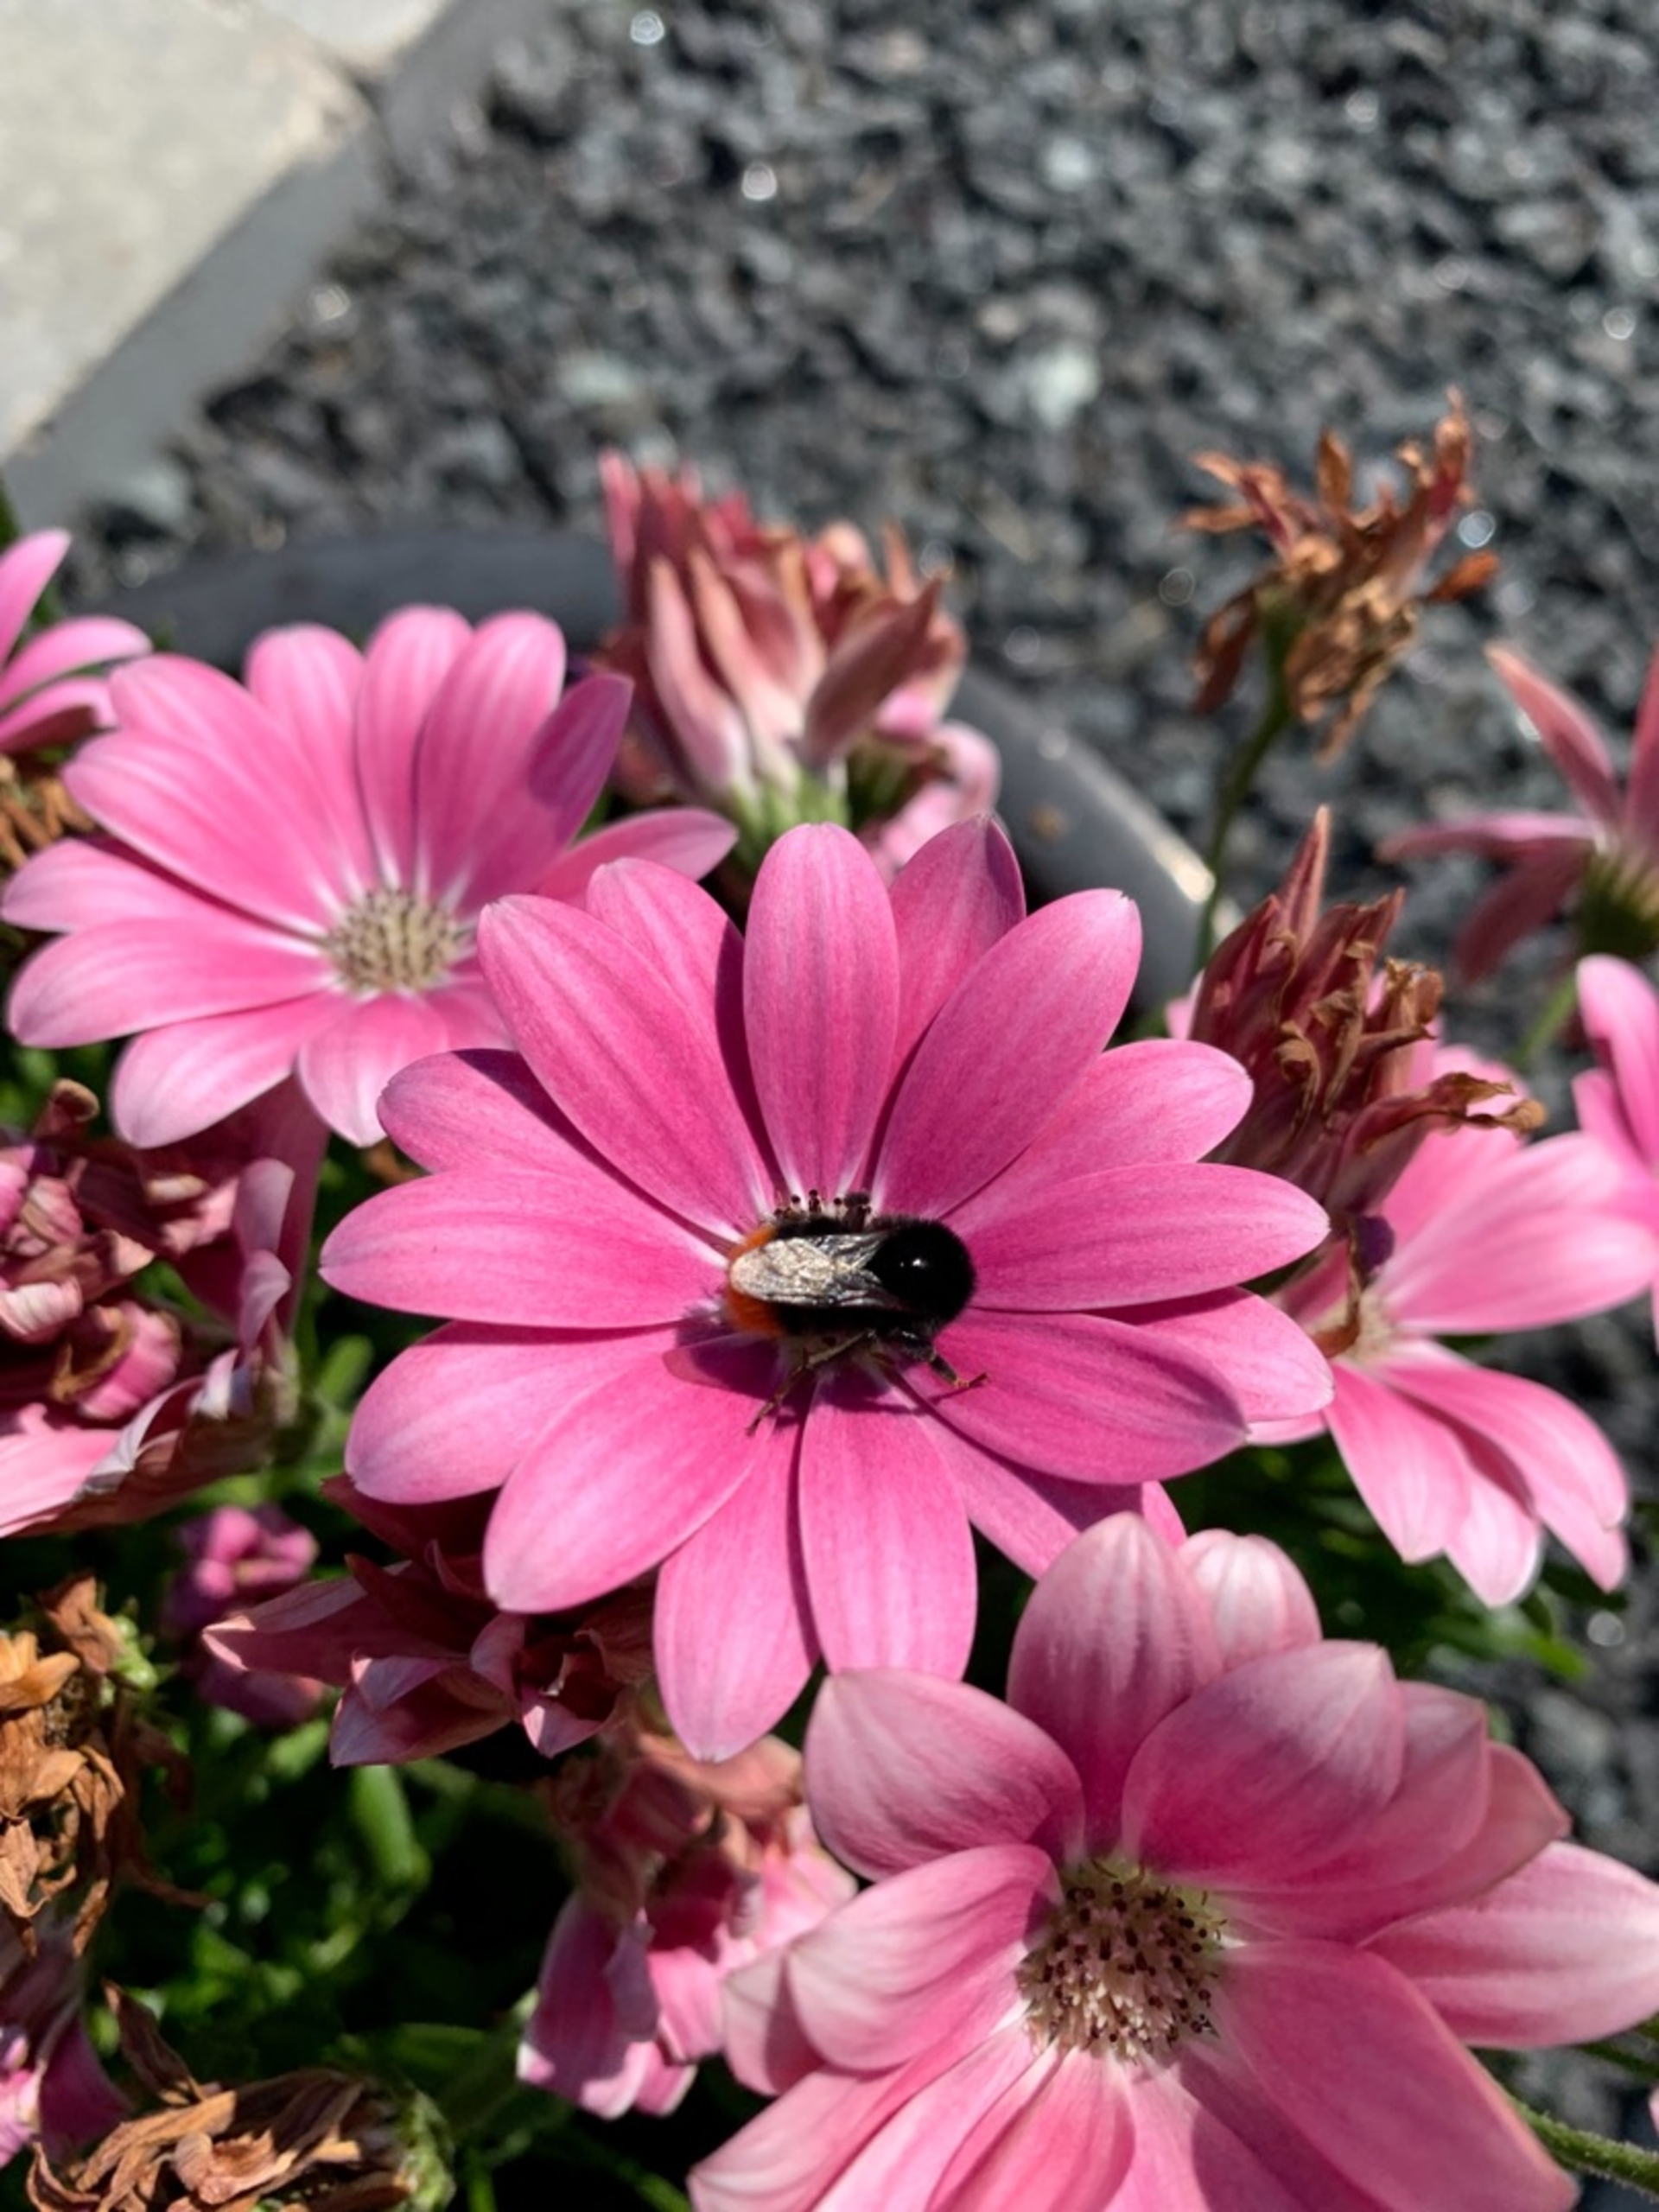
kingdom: Animalia
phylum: Arthropoda
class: Insecta
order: Hymenoptera
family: Apidae
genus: Bombus
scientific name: Bombus lapidarius
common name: Stenhumle
